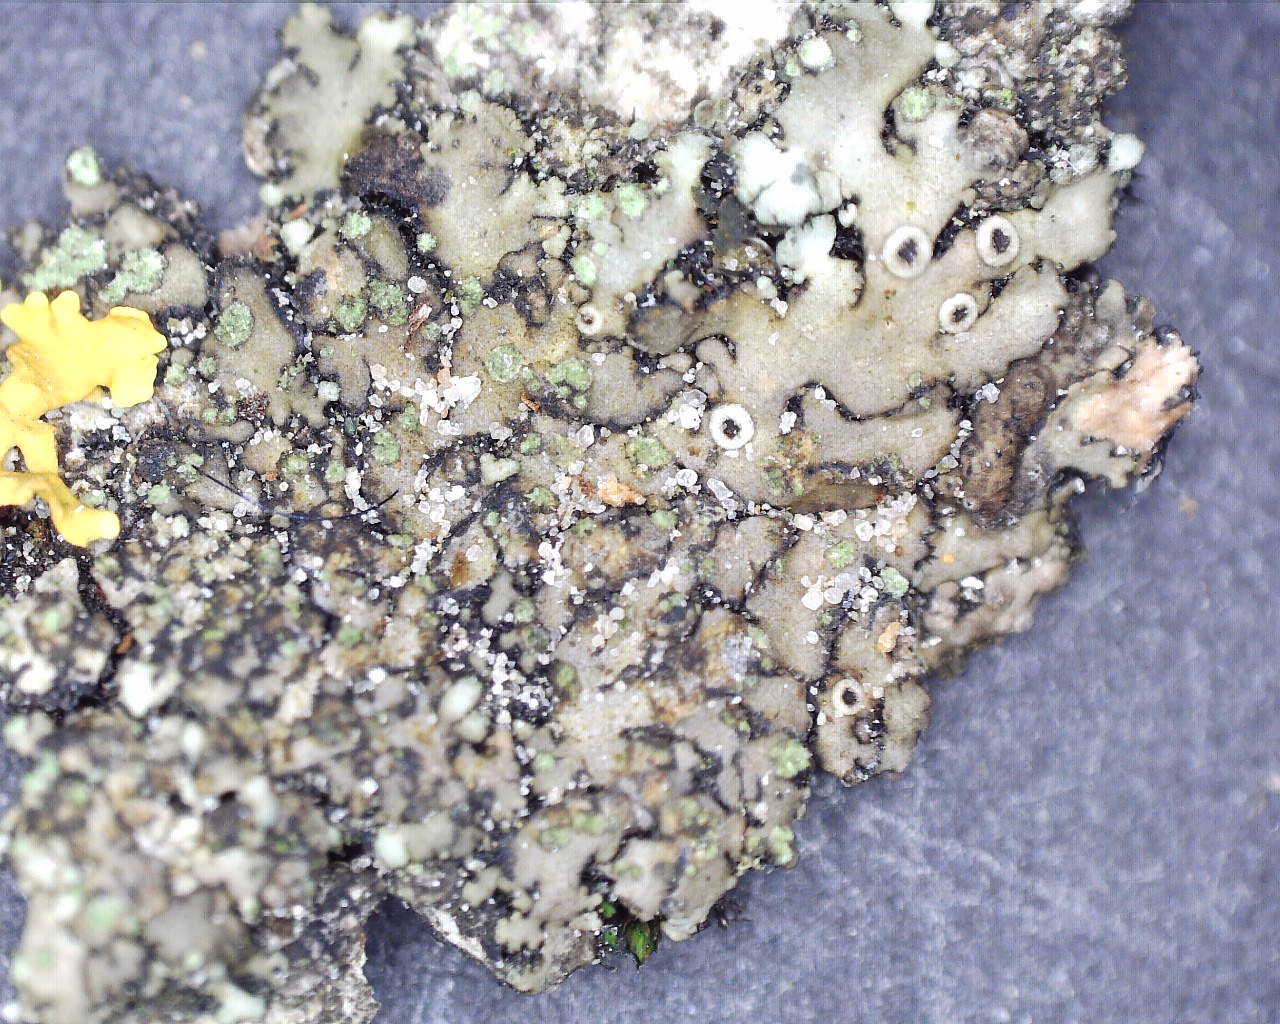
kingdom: Fungi
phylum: Ascomycota
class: Lecanoromycetes
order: Caliciales
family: Physciaceae
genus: Phaeophyscia
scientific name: Phaeophyscia orbicularis
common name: grågrøn rosetlav
